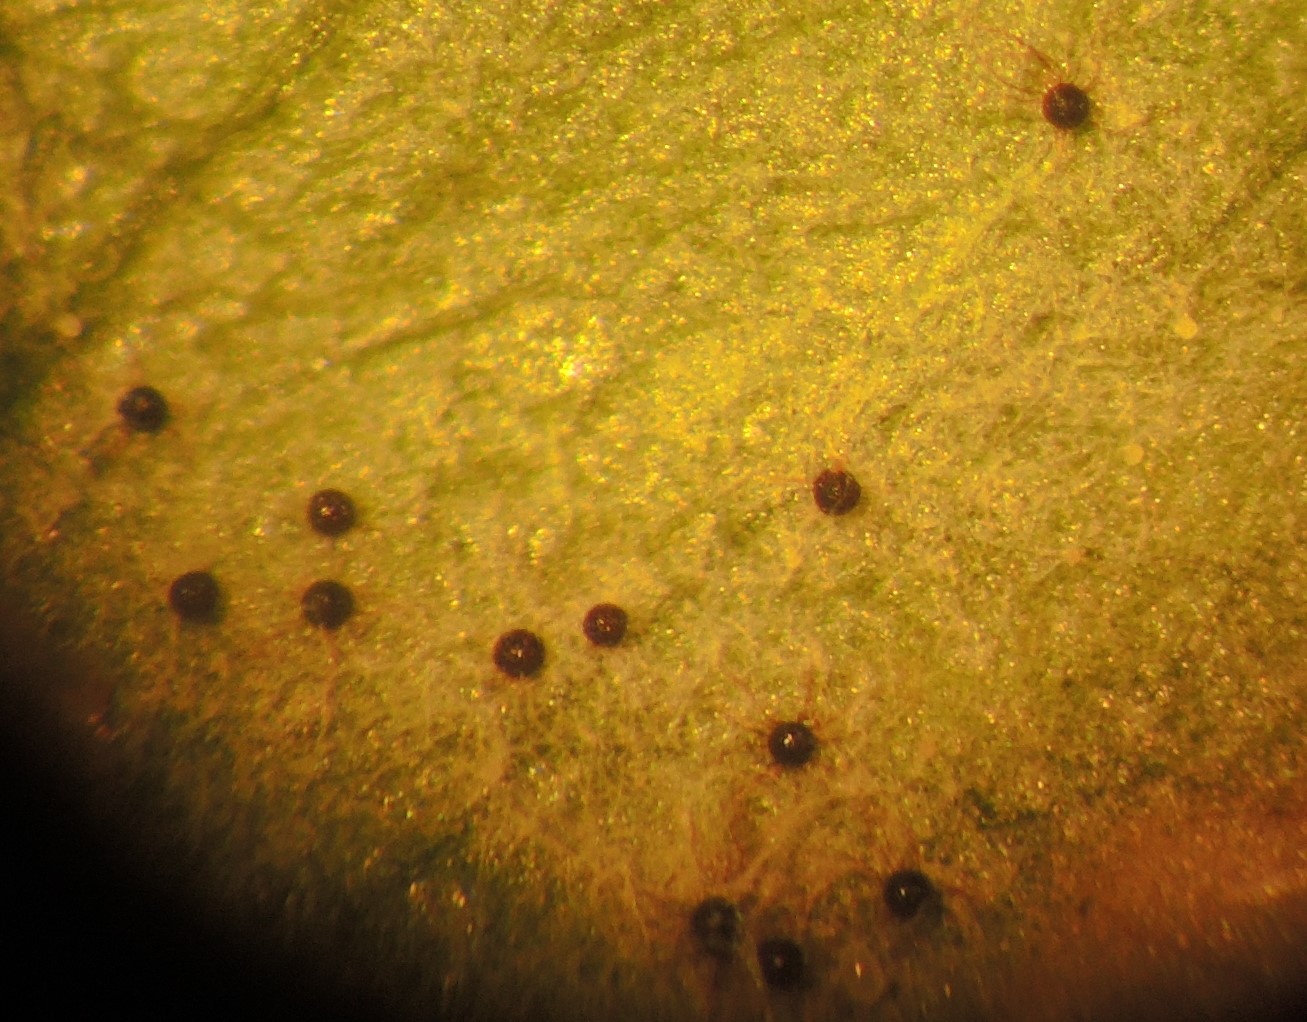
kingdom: Fungi
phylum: Ascomycota
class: Leotiomycetes
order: Helotiales
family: Erysiphaceae
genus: Erysiphe
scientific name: Erysiphe circaeae
